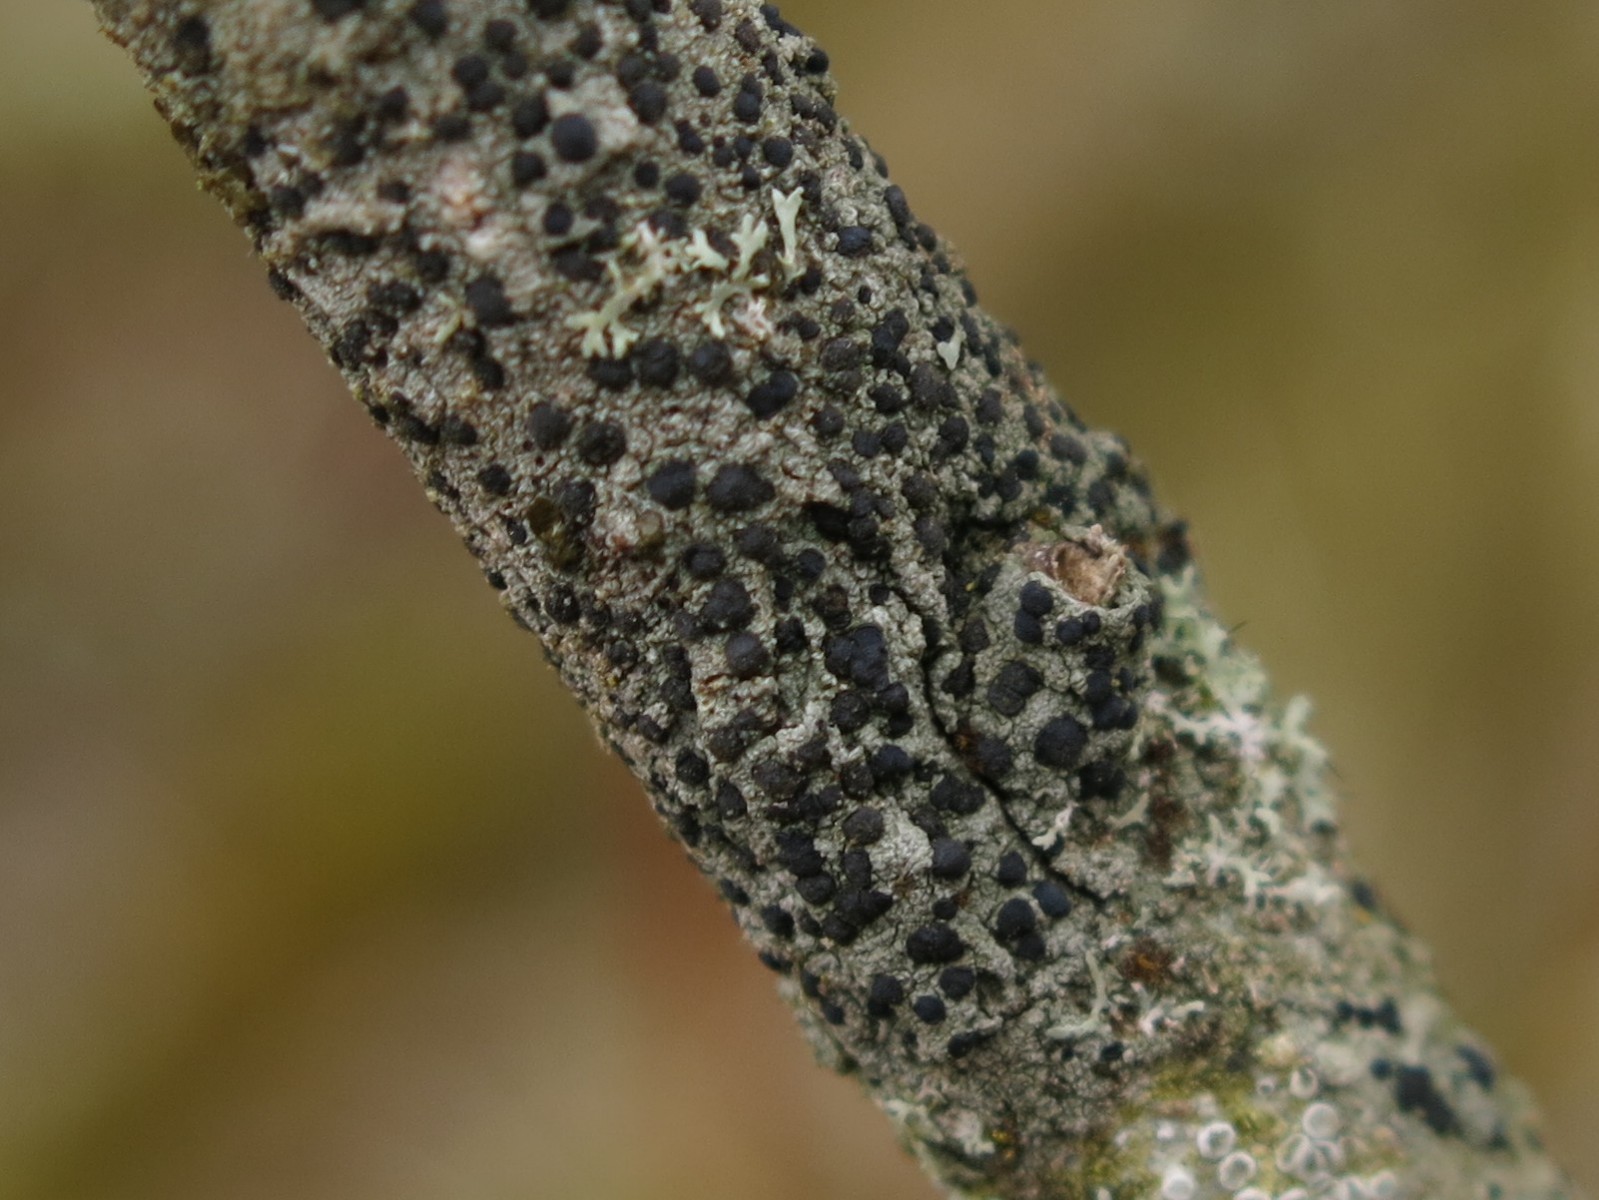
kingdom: Fungi
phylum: Ascomycota
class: Lecanoromycetes
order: Lecanorales
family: Lecanoraceae
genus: Lecidella
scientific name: Lecidella euphorea
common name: vortet skivelav
